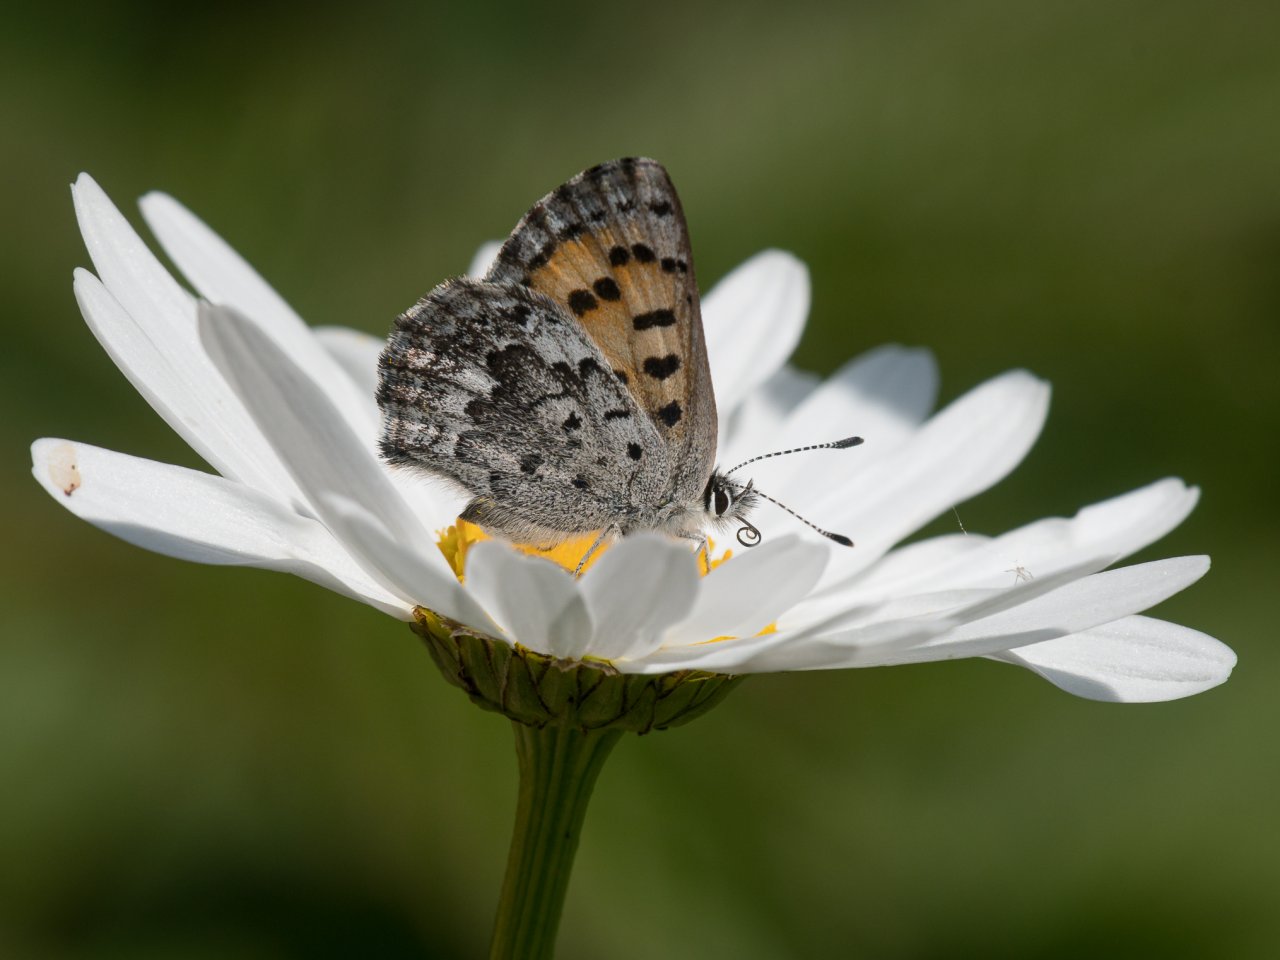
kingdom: Animalia
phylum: Arthropoda
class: Insecta
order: Lepidoptera
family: Lycaenidae
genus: Lycaena
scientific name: Lycaena mariposa
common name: Mariposa Copper
